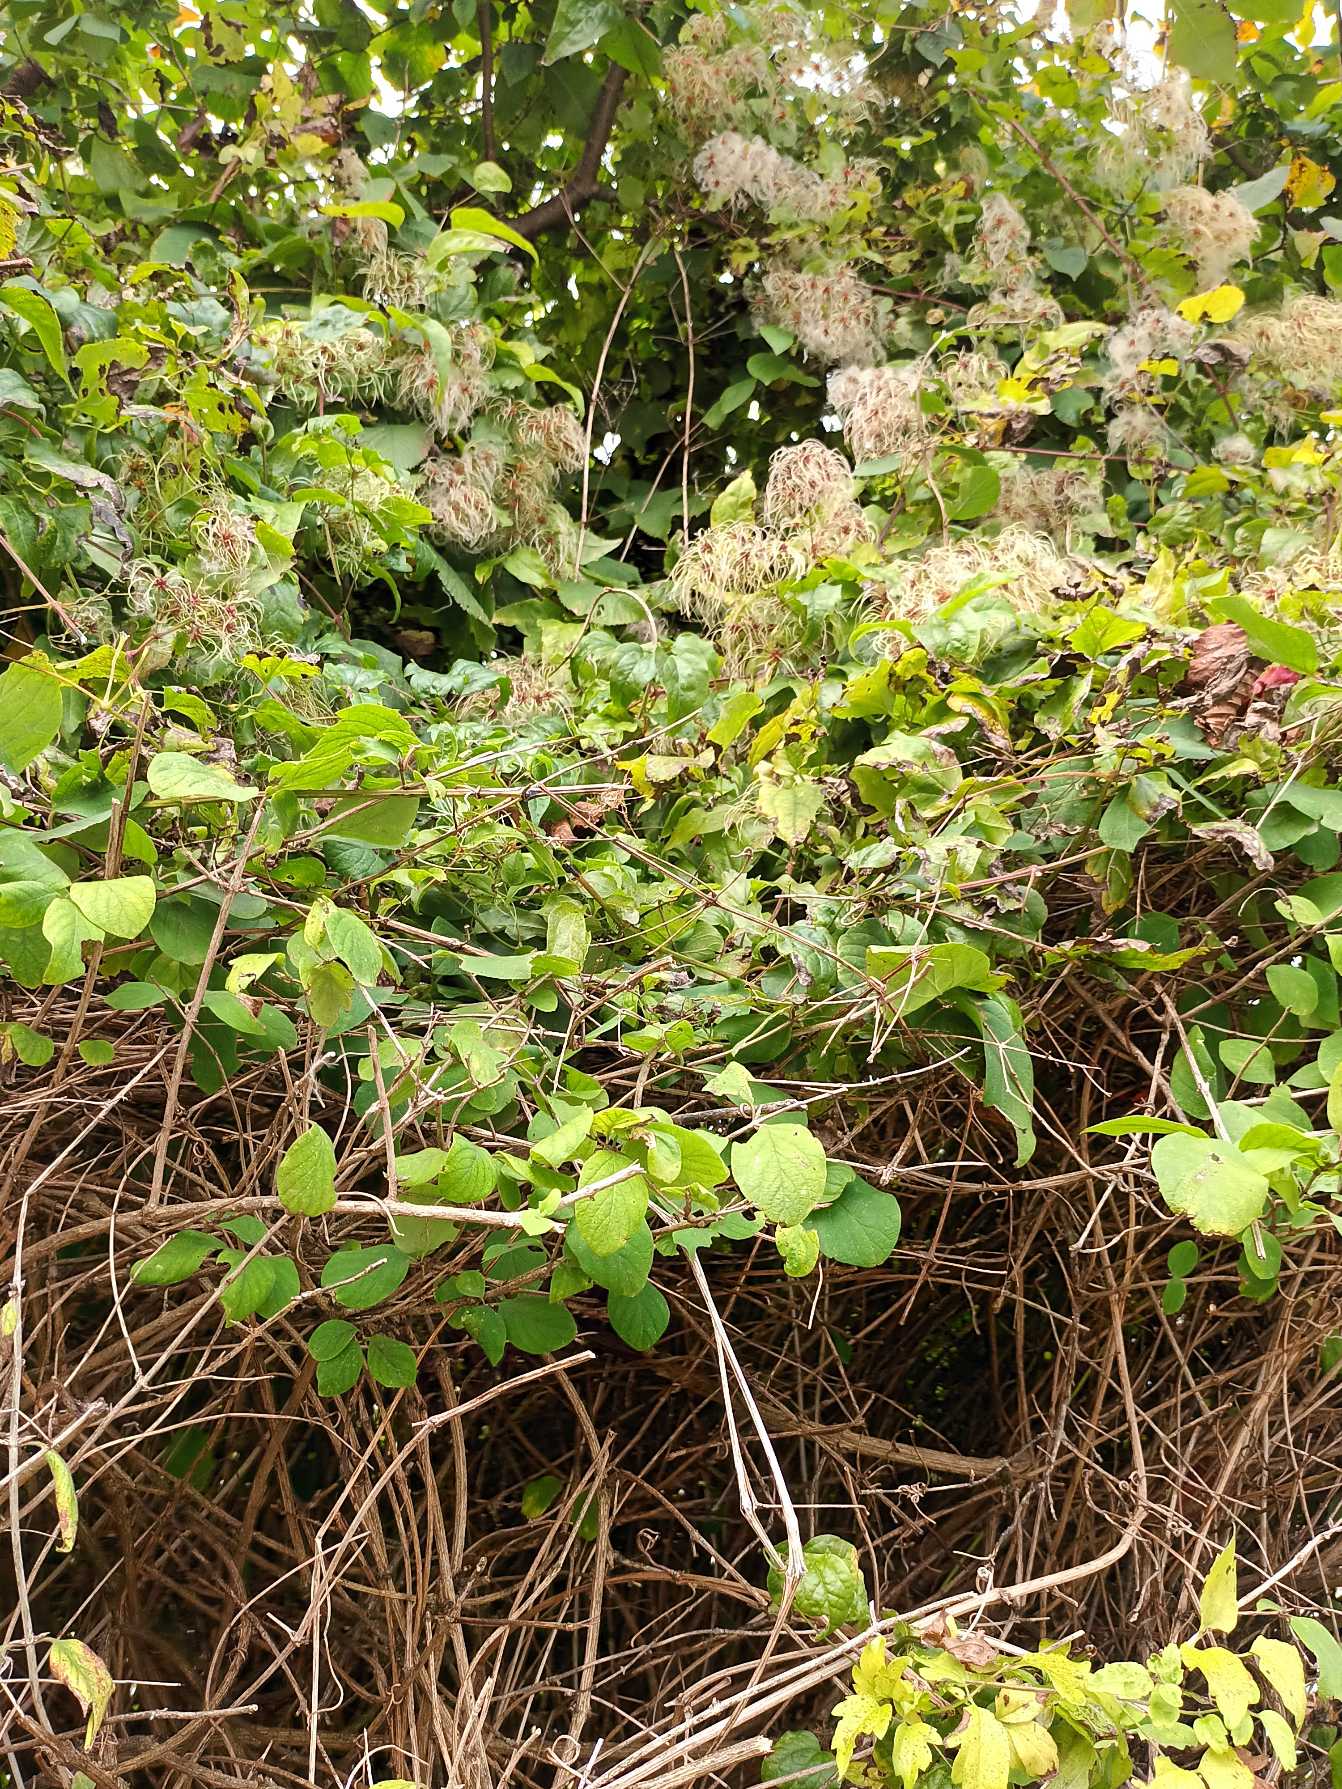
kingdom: Plantae
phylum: Tracheophyta
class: Magnoliopsida
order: Ranunculales
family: Ranunculaceae
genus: Clematis
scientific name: Clematis vitalba
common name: Skovranke
